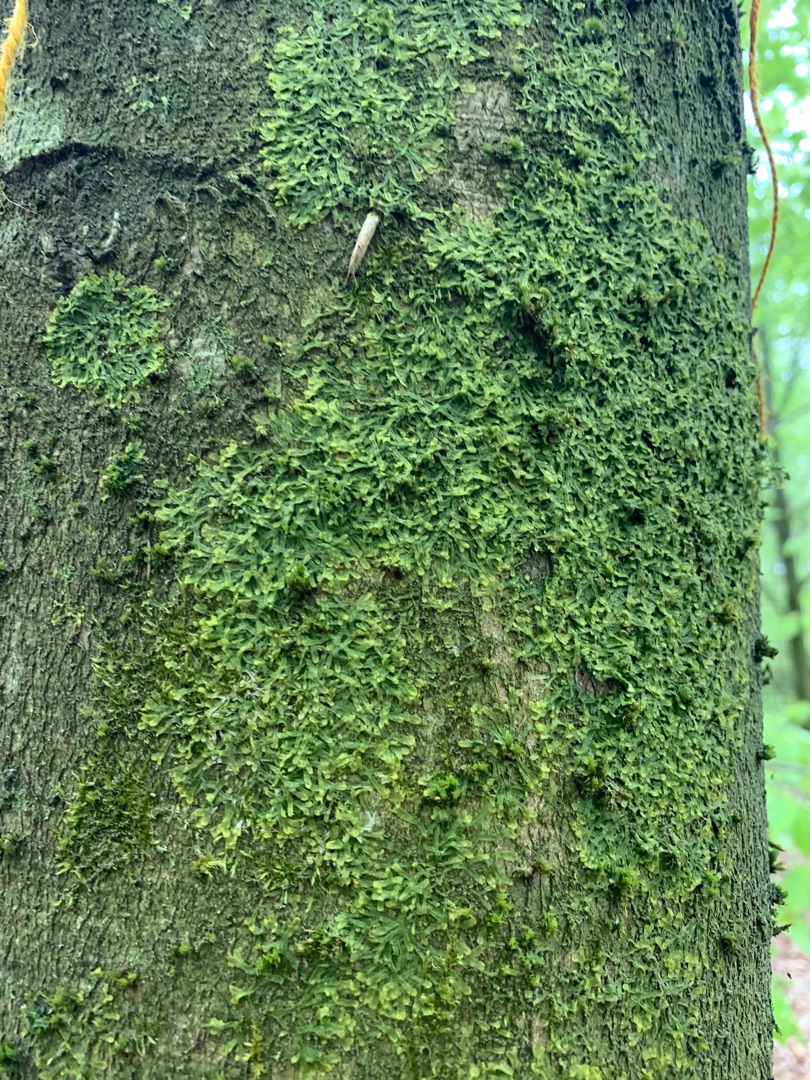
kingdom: Plantae
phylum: Marchantiophyta
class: Jungermanniopsida
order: Metzgeriales
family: Metzgeriaceae
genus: Metzgeria
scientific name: Metzgeria furcata
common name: Almindelig gaffelløv
